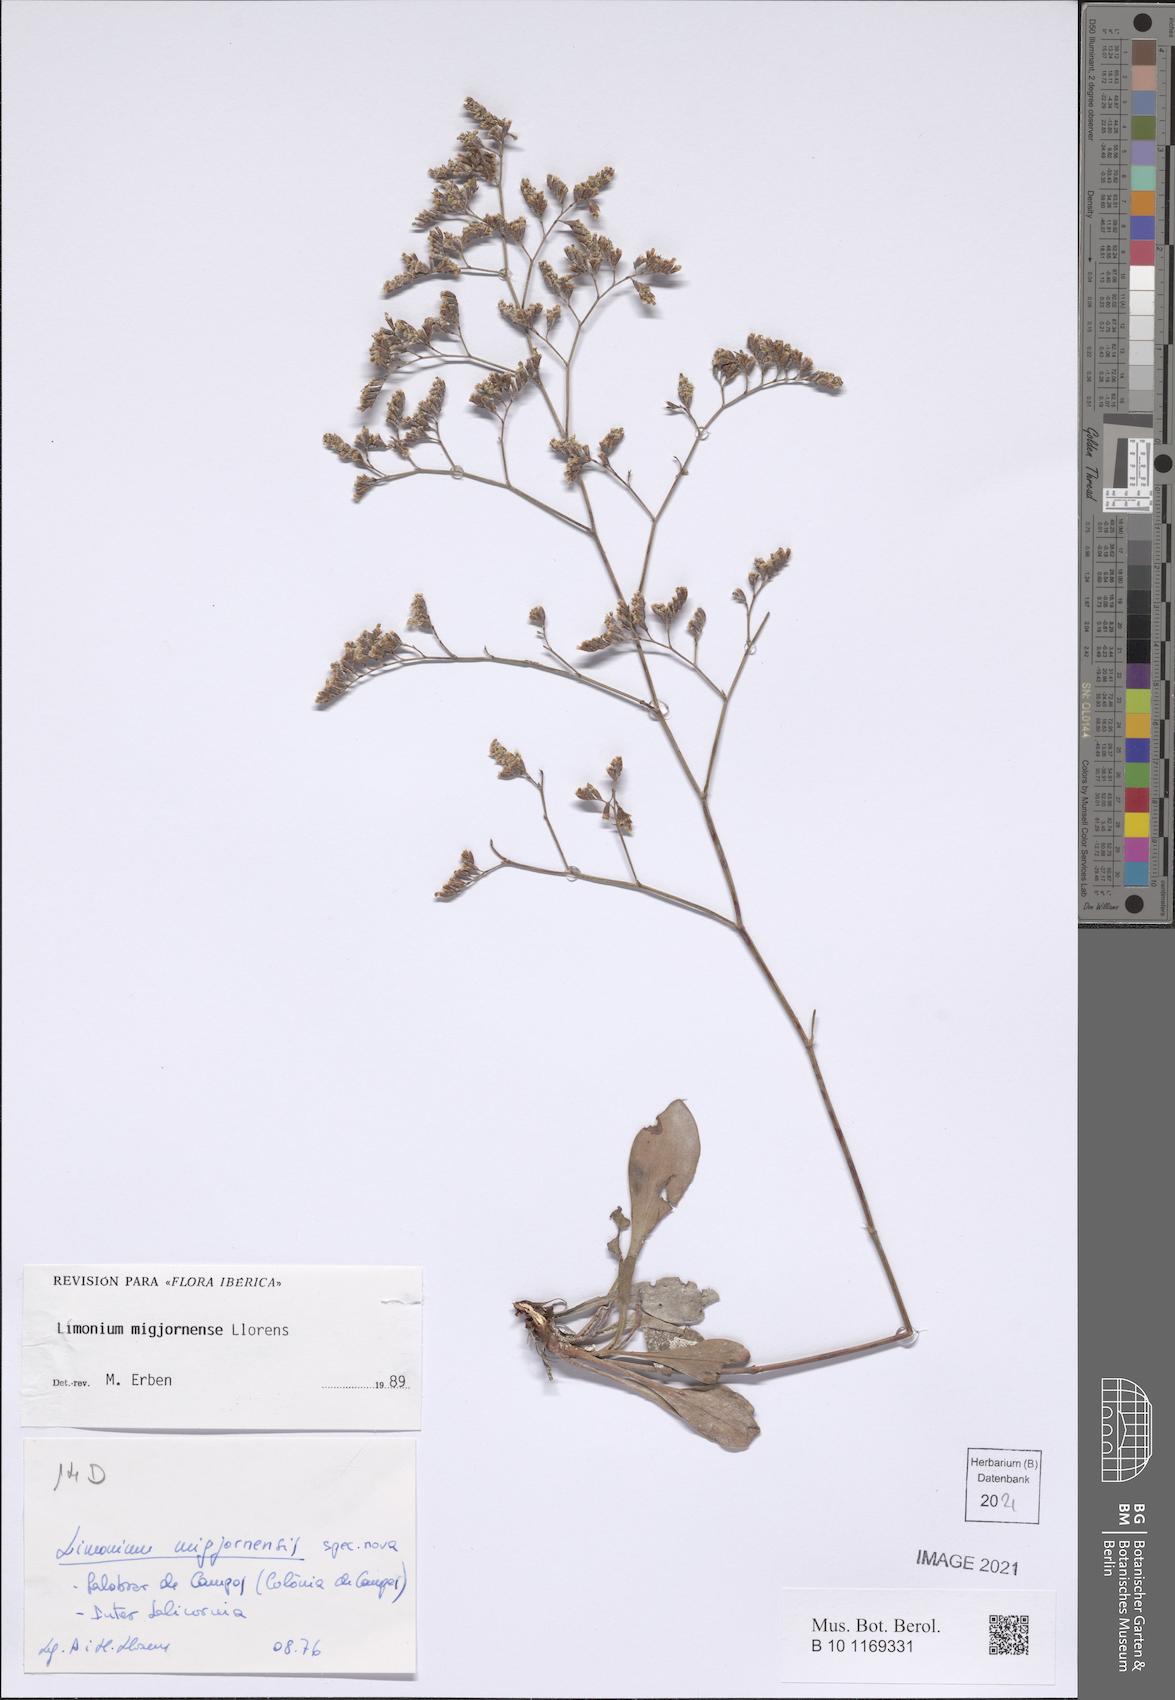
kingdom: Plantae
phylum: Tracheophyta
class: Magnoliopsida
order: Caryophyllales
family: Plumbaginaceae
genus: Limonium
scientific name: Limonium migjornense
